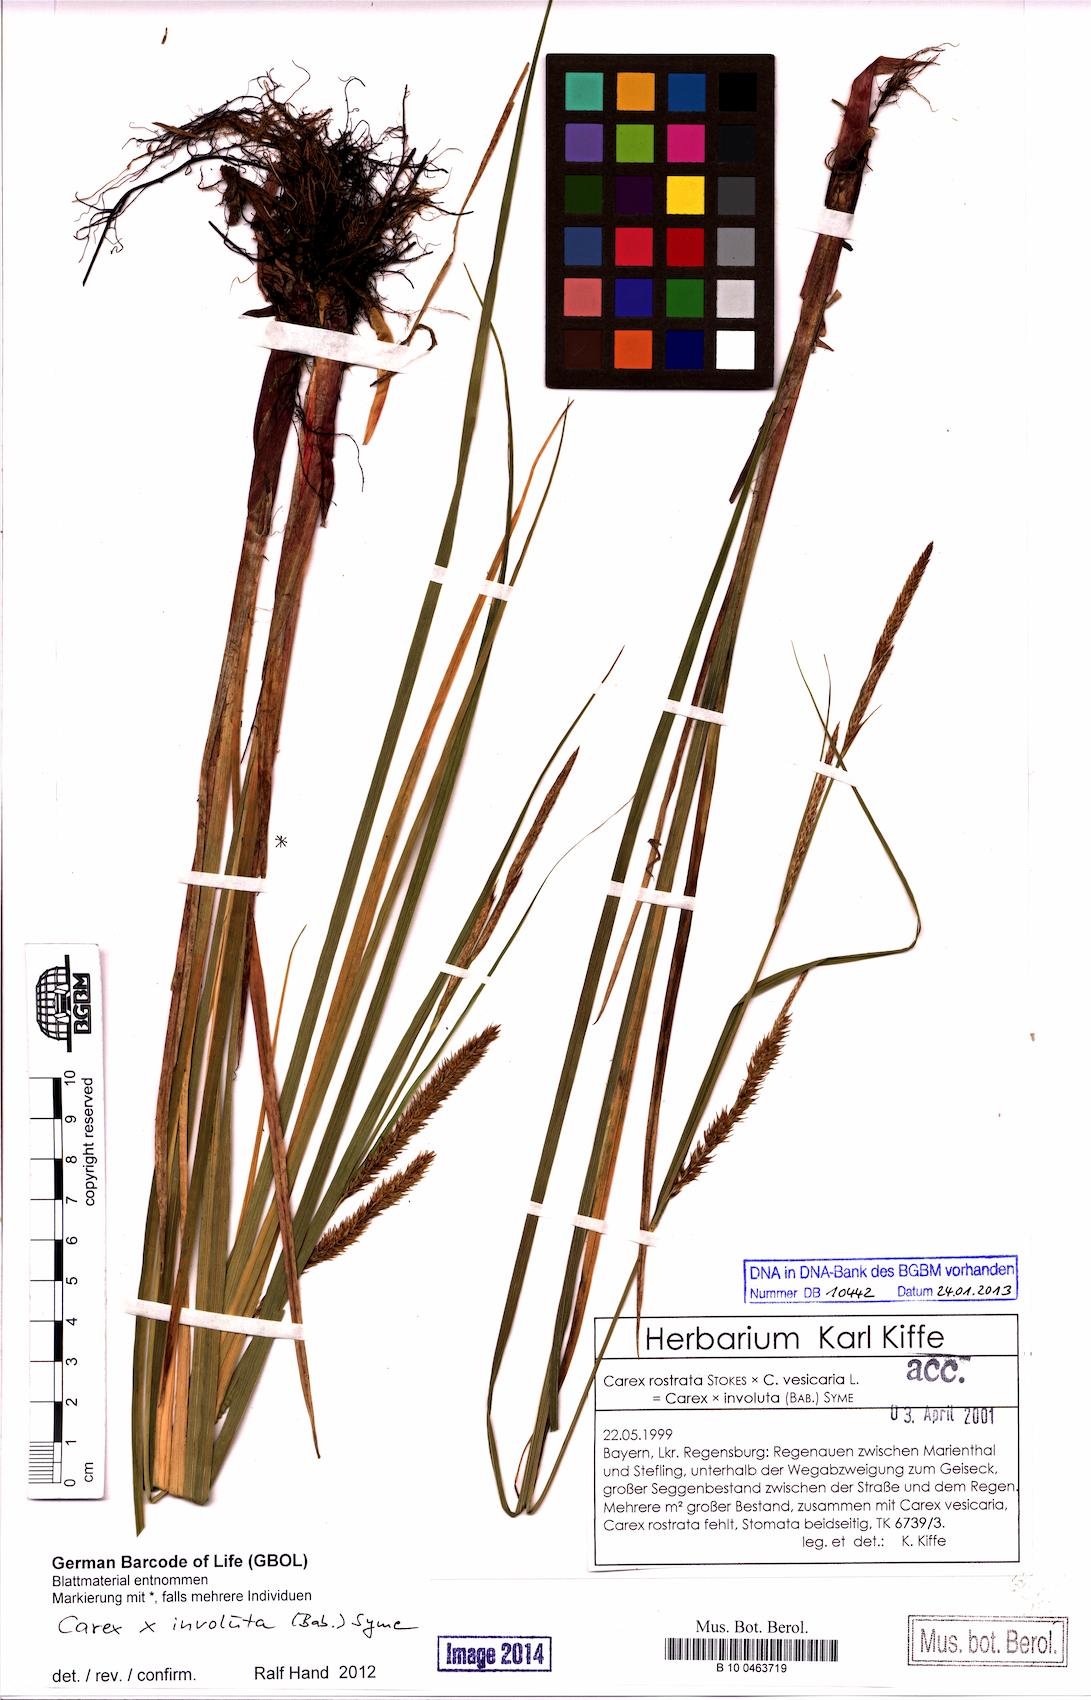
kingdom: Plantae
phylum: Tracheophyta
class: Liliopsida
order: Poales
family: Cyperaceae
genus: Carex
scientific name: Carex involuta
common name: Pannewitz's sedge
